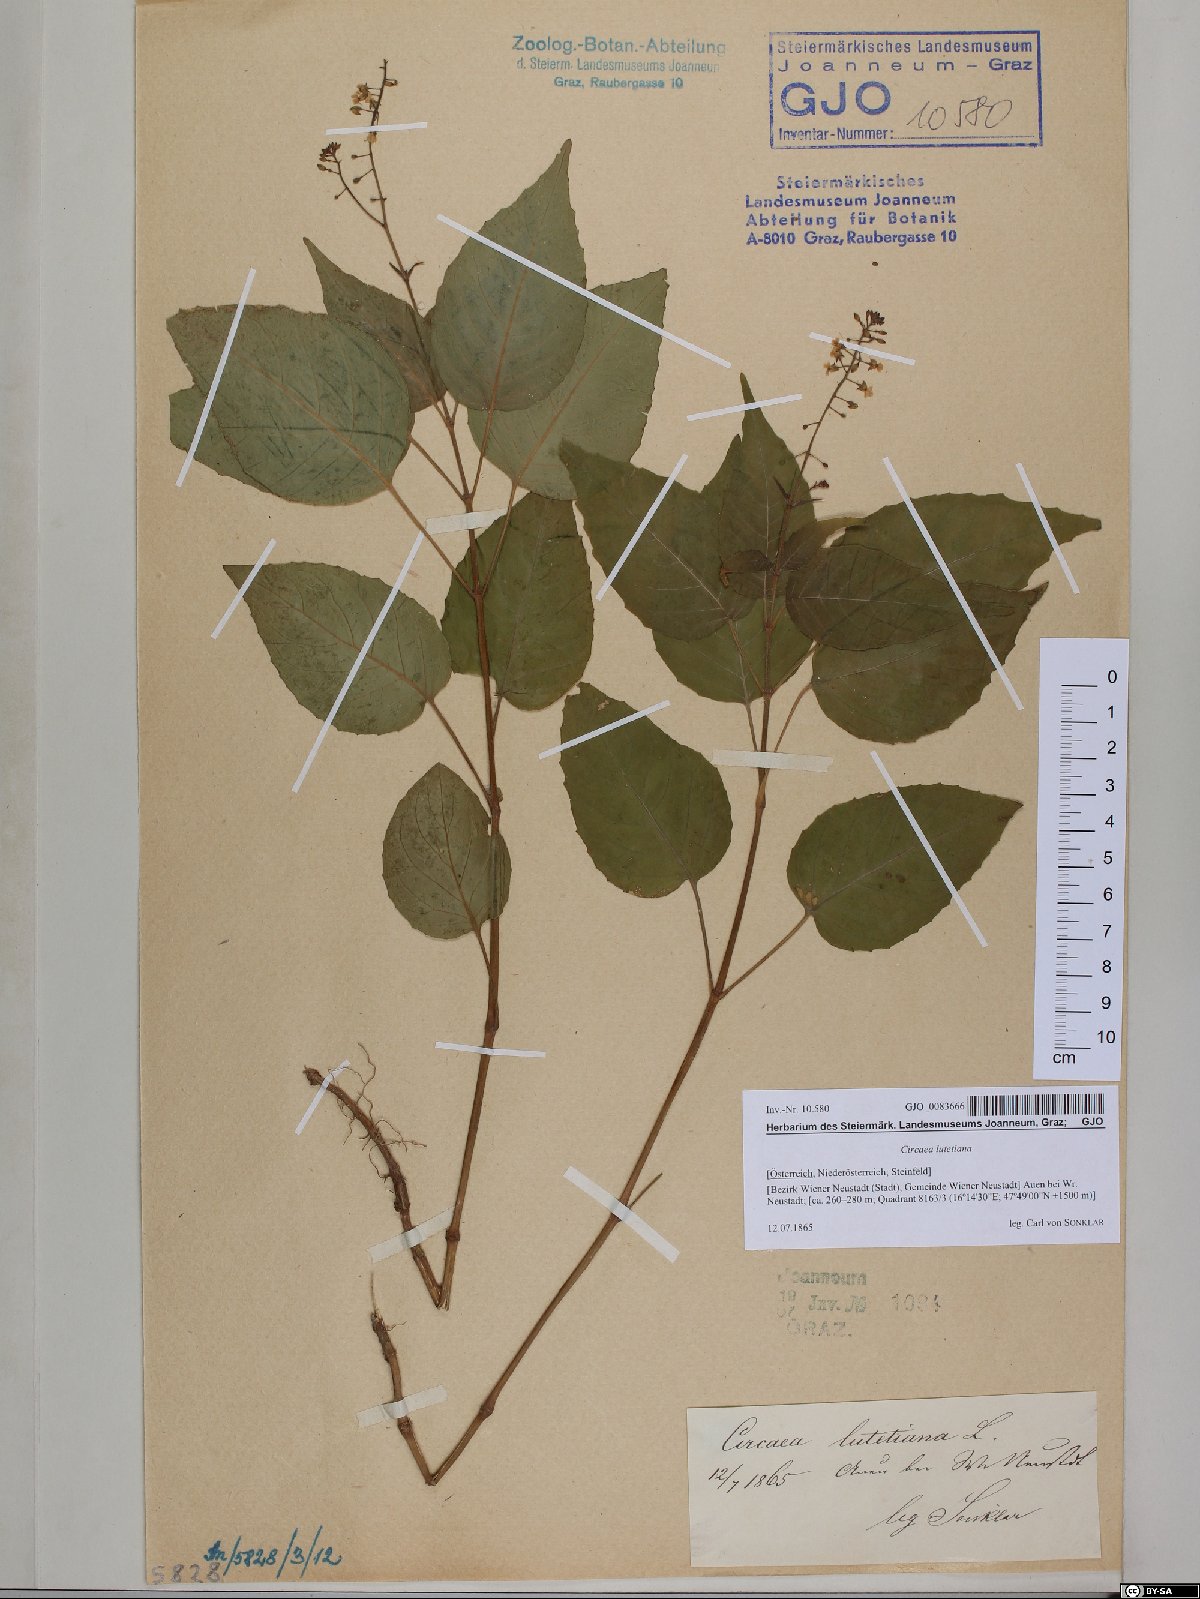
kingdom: Plantae
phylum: Tracheophyta
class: Magnoliopsida
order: Myrtales
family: Onagraceae
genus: Circaea
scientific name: Circaea lutetiana
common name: Enchanter's-nightshade
